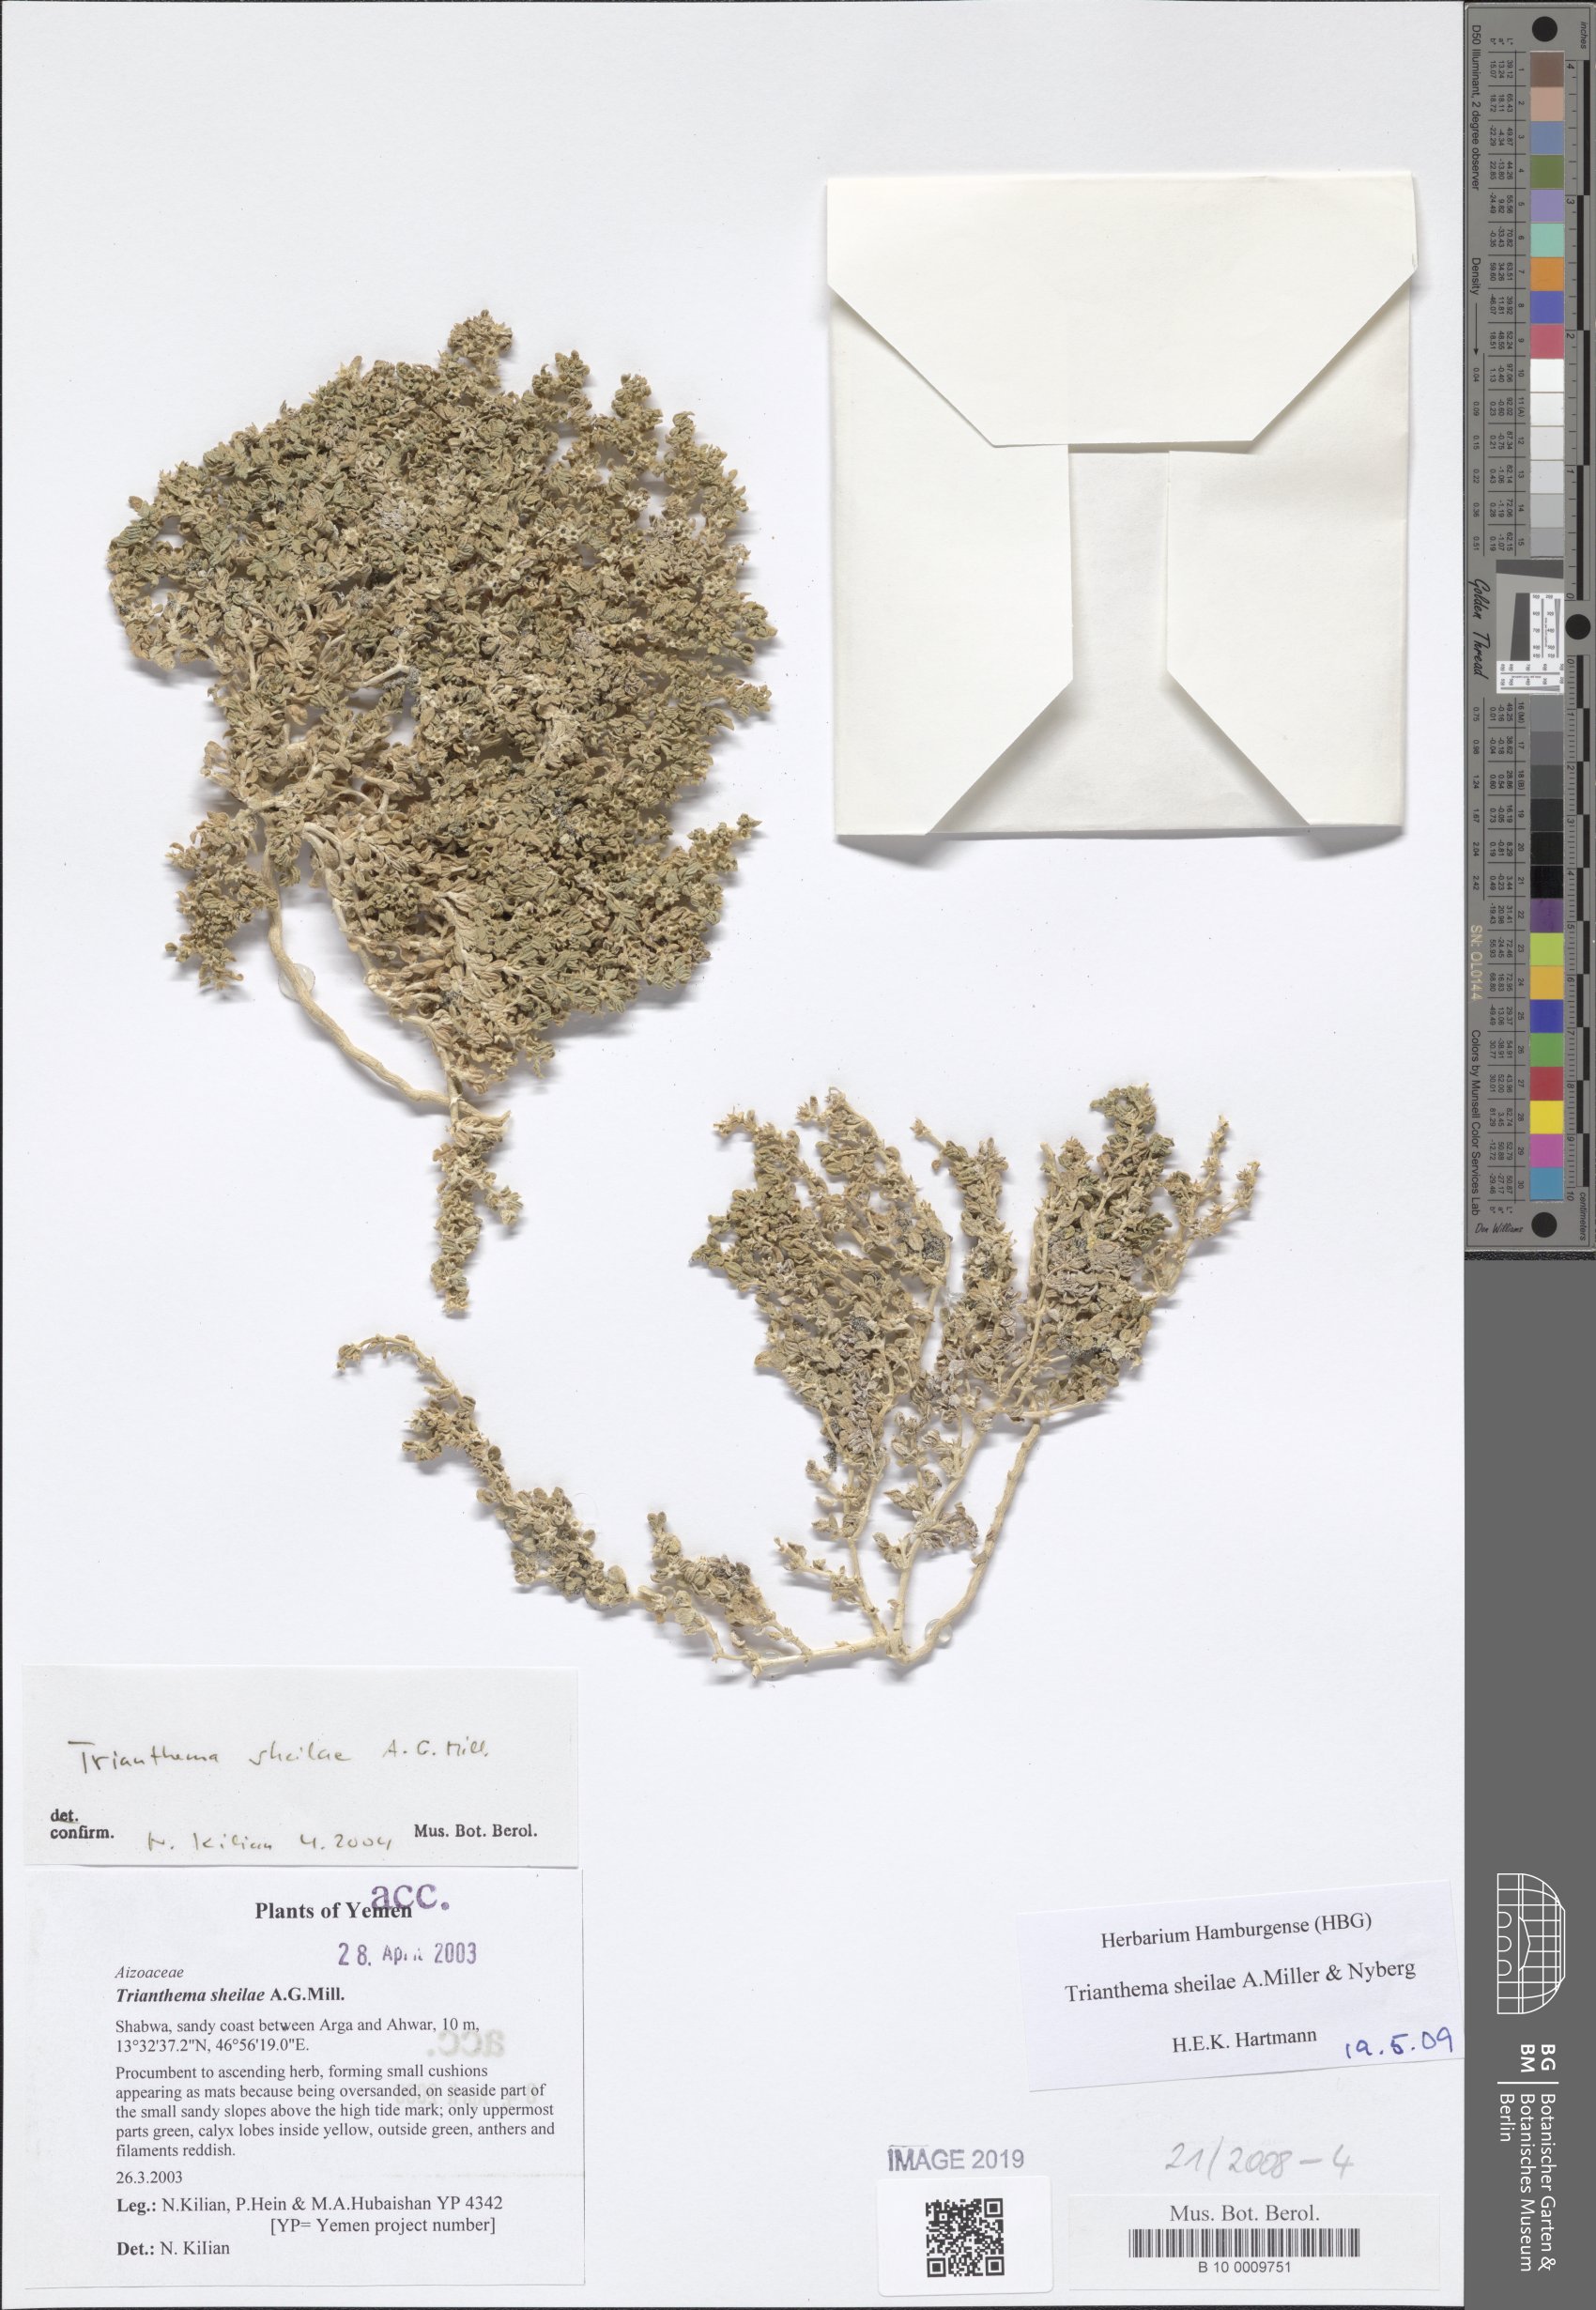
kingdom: Plantae
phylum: Tracheophyta
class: Magnoliopsida
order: Caryophyllales
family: Aizoaceae
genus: Trianthema
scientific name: Trianthema sheilae
